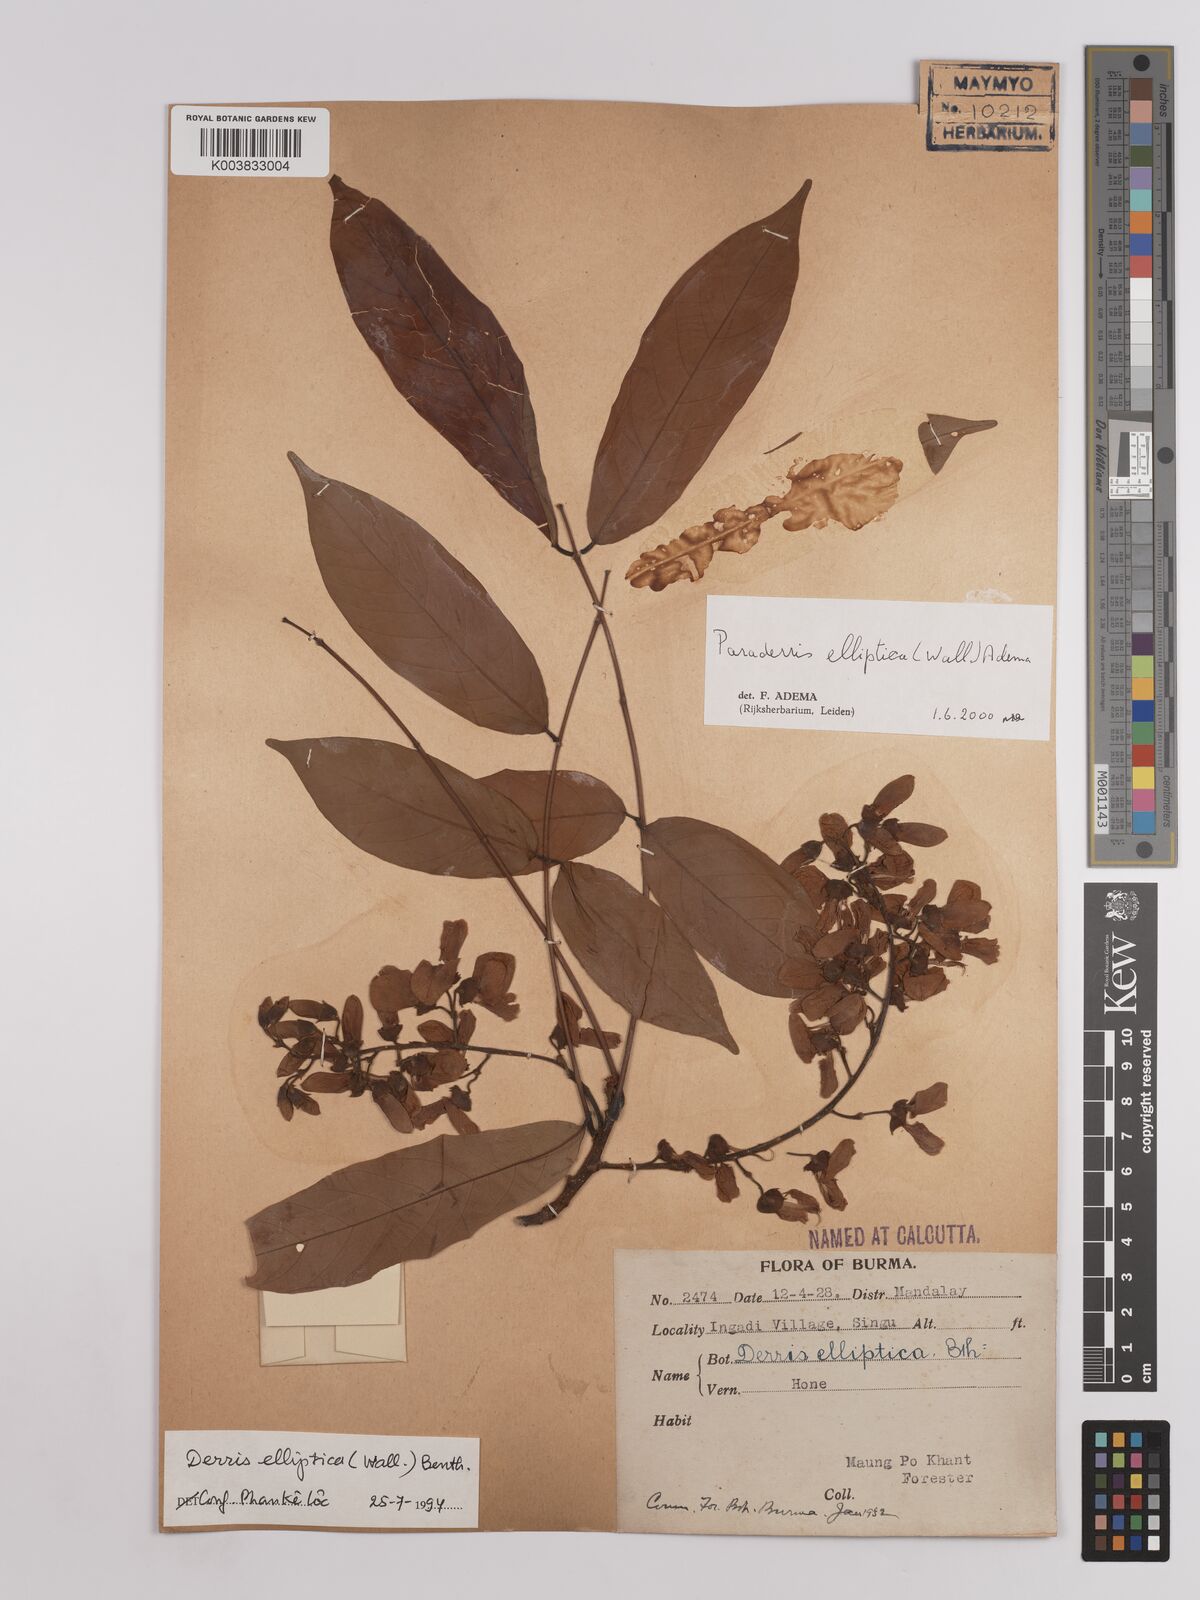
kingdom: Plantae
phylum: Tracheophyta
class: Magnoliopsida
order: Fabales
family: Fabaceae
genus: Derris
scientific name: Derris elliptica
